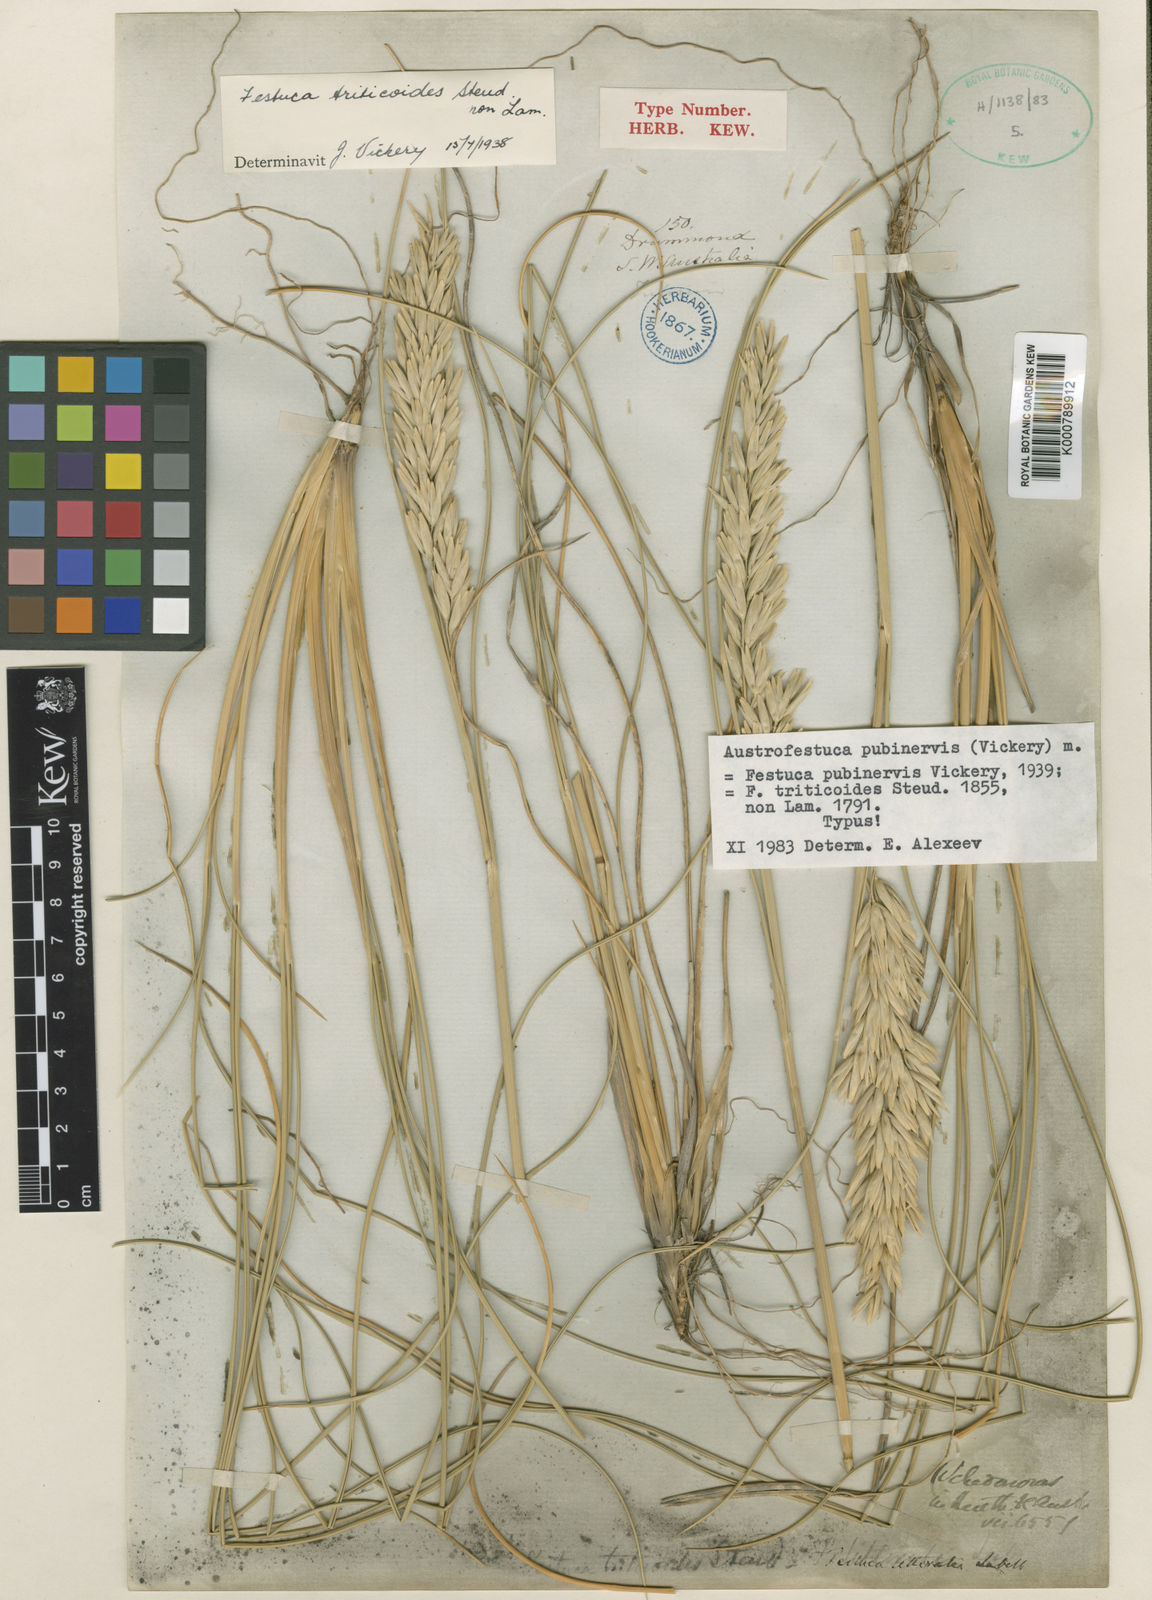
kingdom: Plantae
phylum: Tracheophyta
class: Liliopsida
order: Poales
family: Poaceae
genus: Poa
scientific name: Poa triodioides
